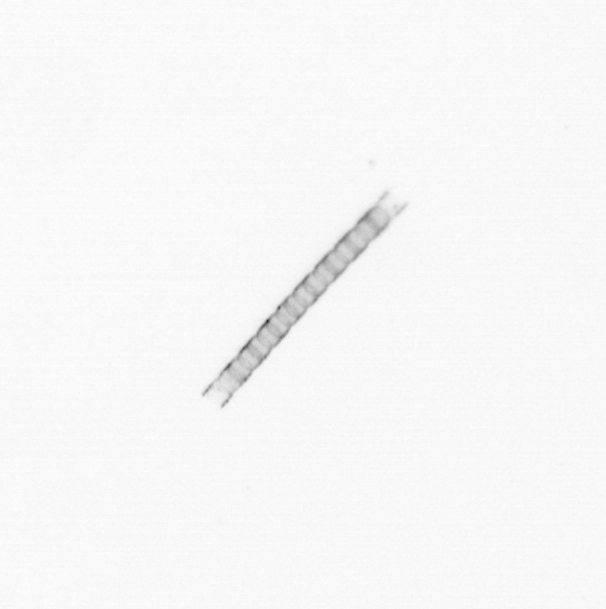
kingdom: Chromista
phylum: Ochrophyta
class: Bacillariophyceae
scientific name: Bacillariophyceae
